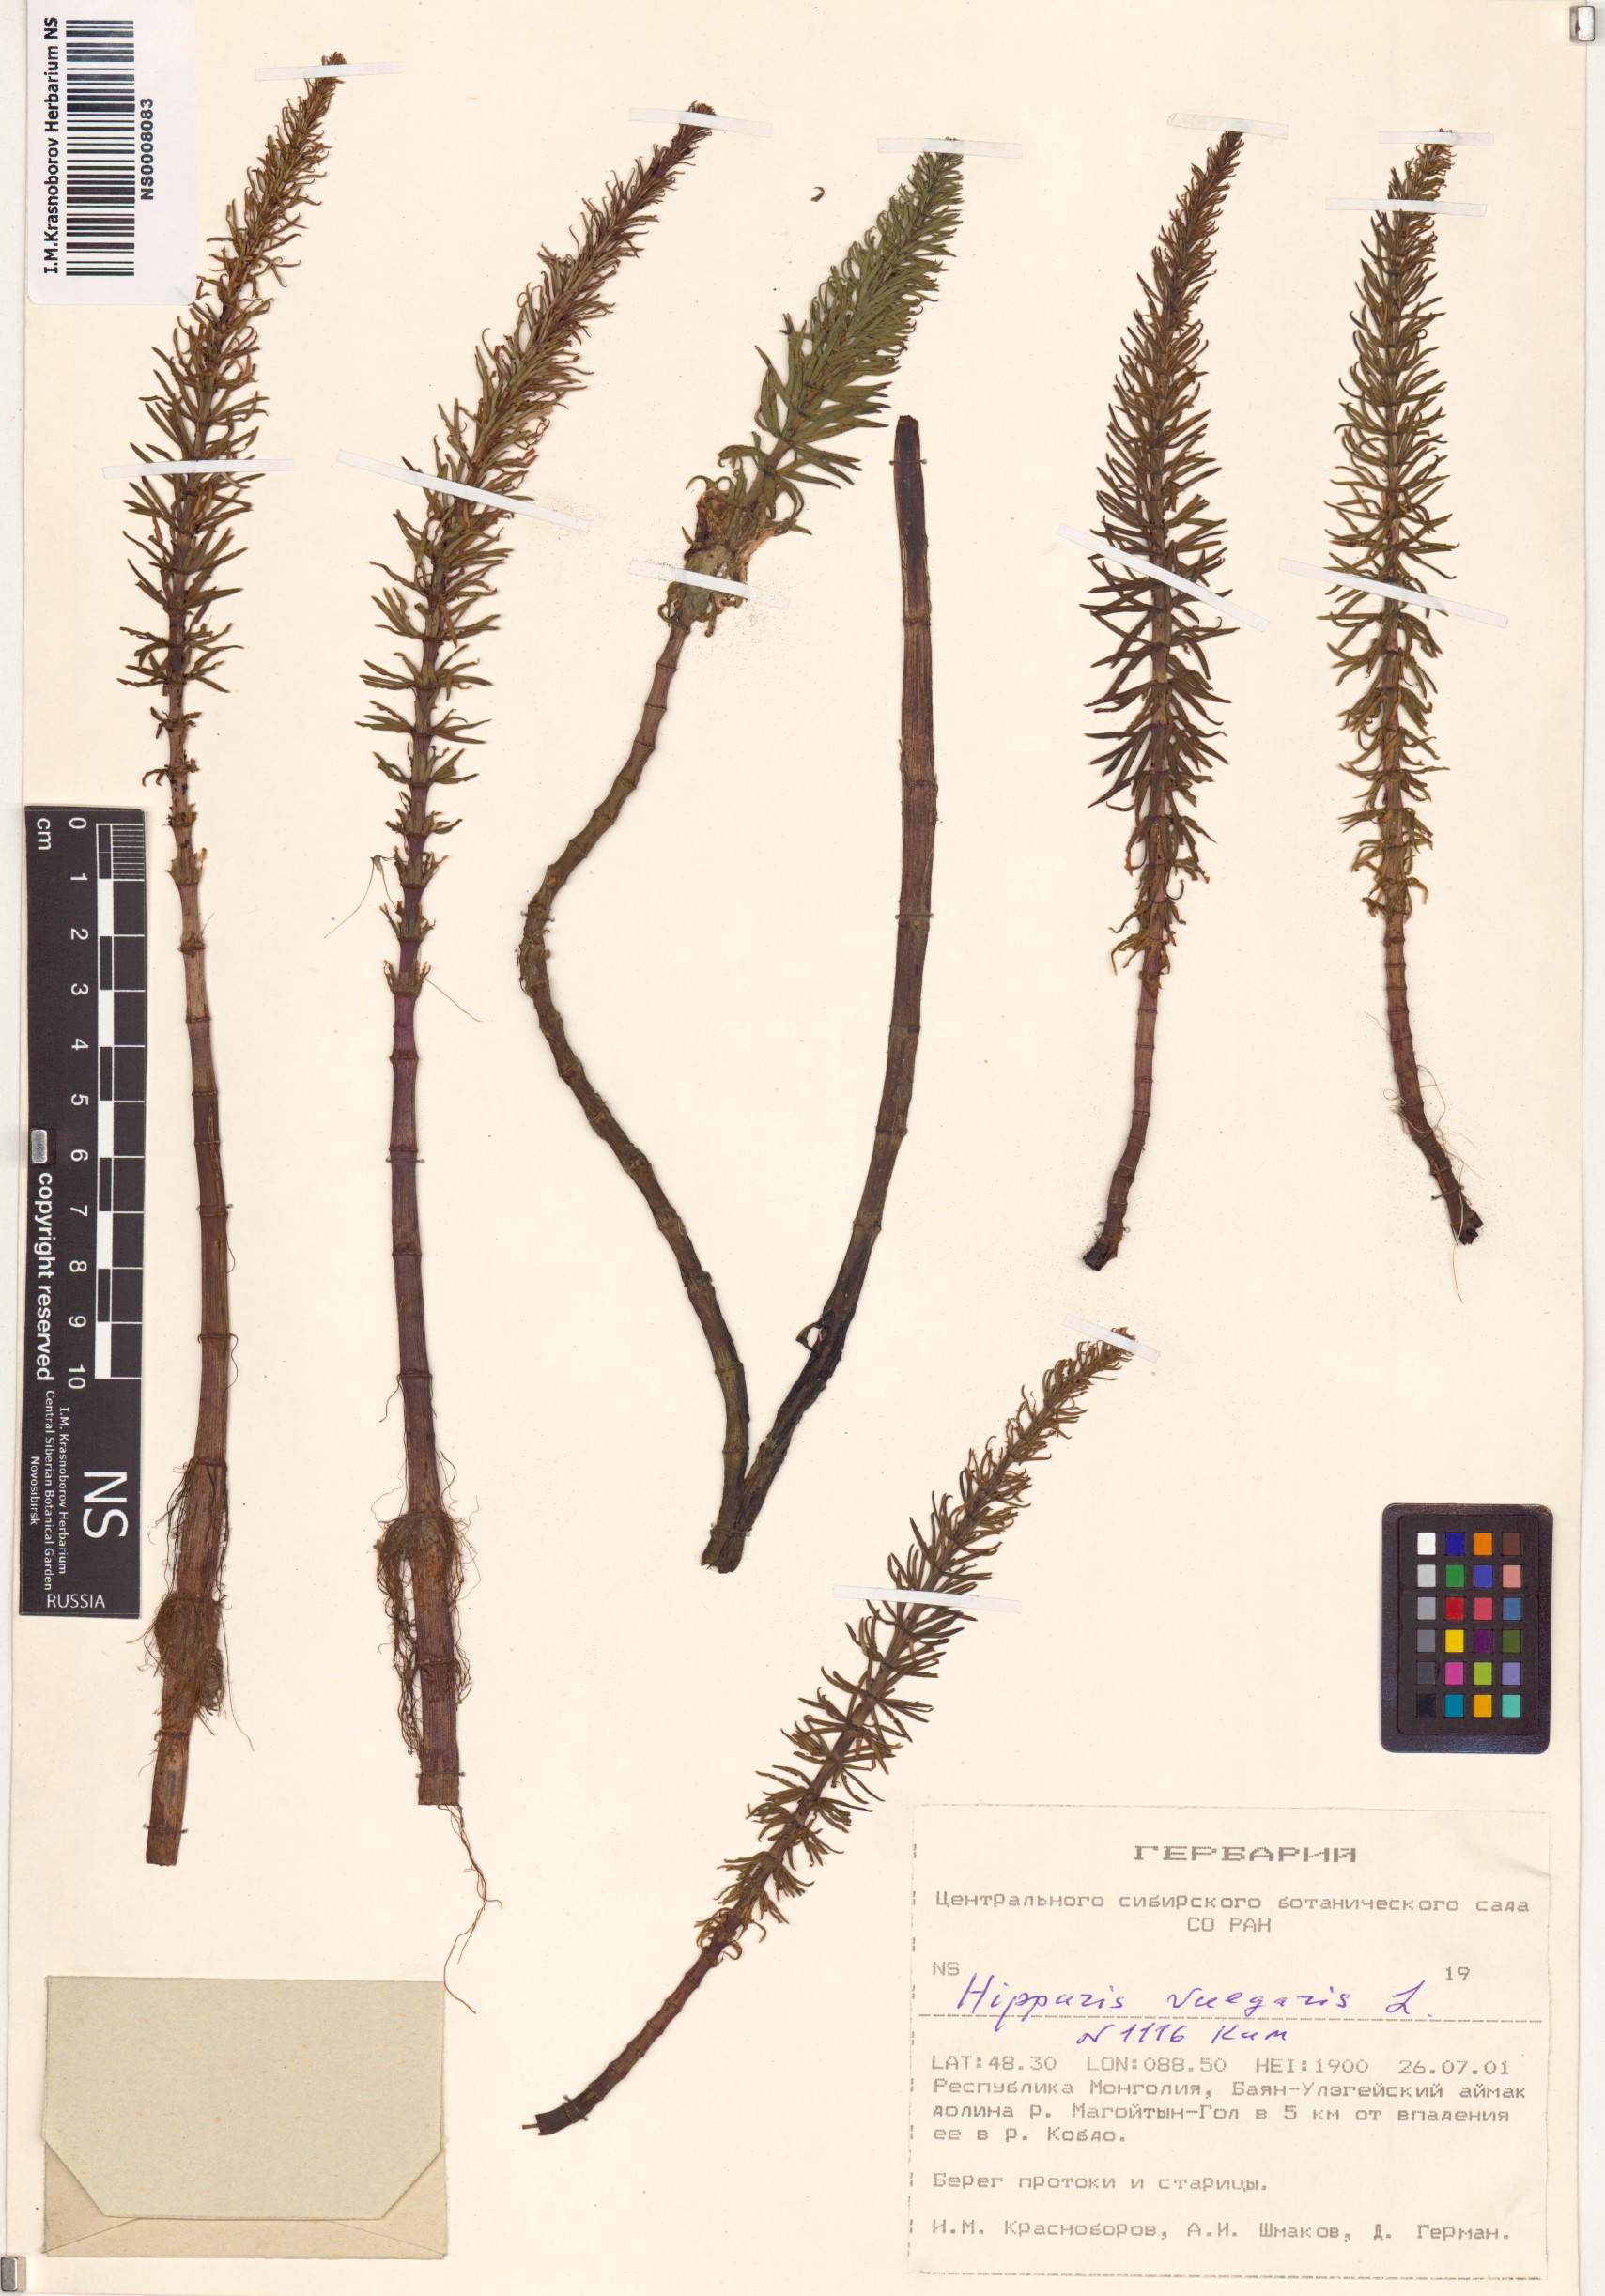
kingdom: Plantae
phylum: Tracheophyta
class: Magnoliopsida
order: Lamiales
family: Plantaginaceae
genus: Hippuris
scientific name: Hippuris vulgaris
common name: Mare's-tail
